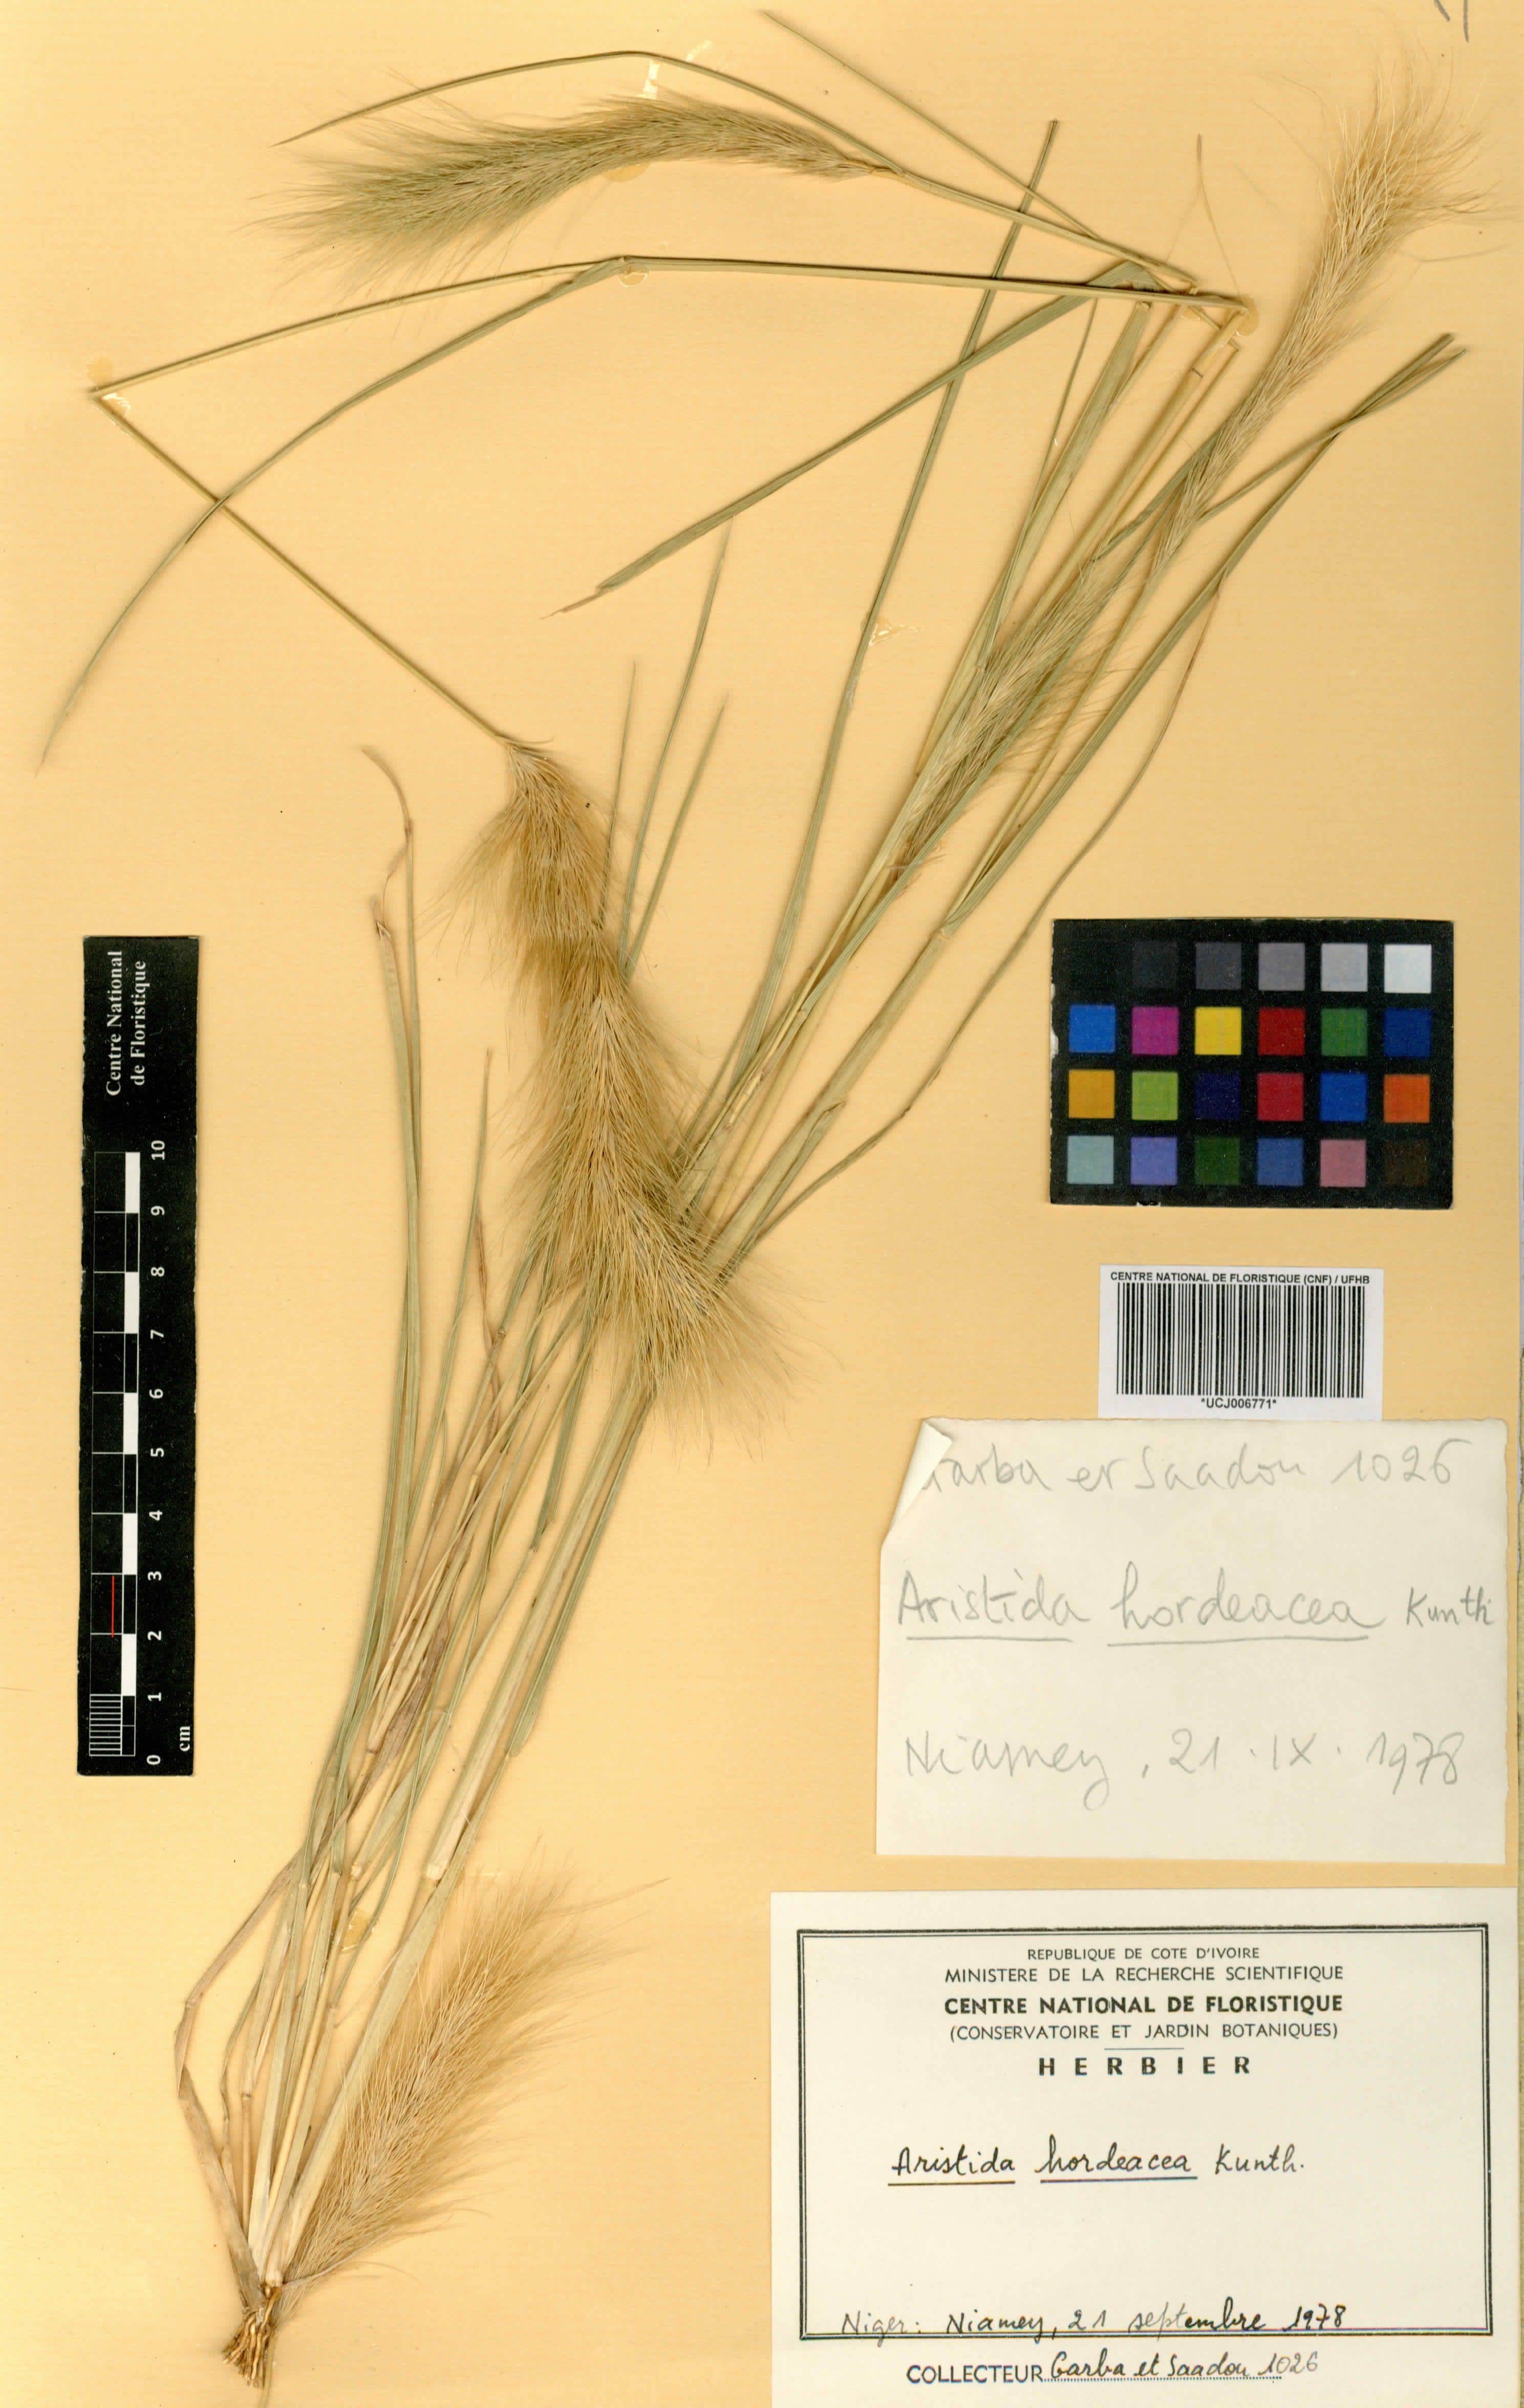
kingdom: Plantae
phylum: Tracheophyta
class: Liliopsida
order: Poales
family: Poaceae
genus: Aristida
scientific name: Aristida hordeacea
